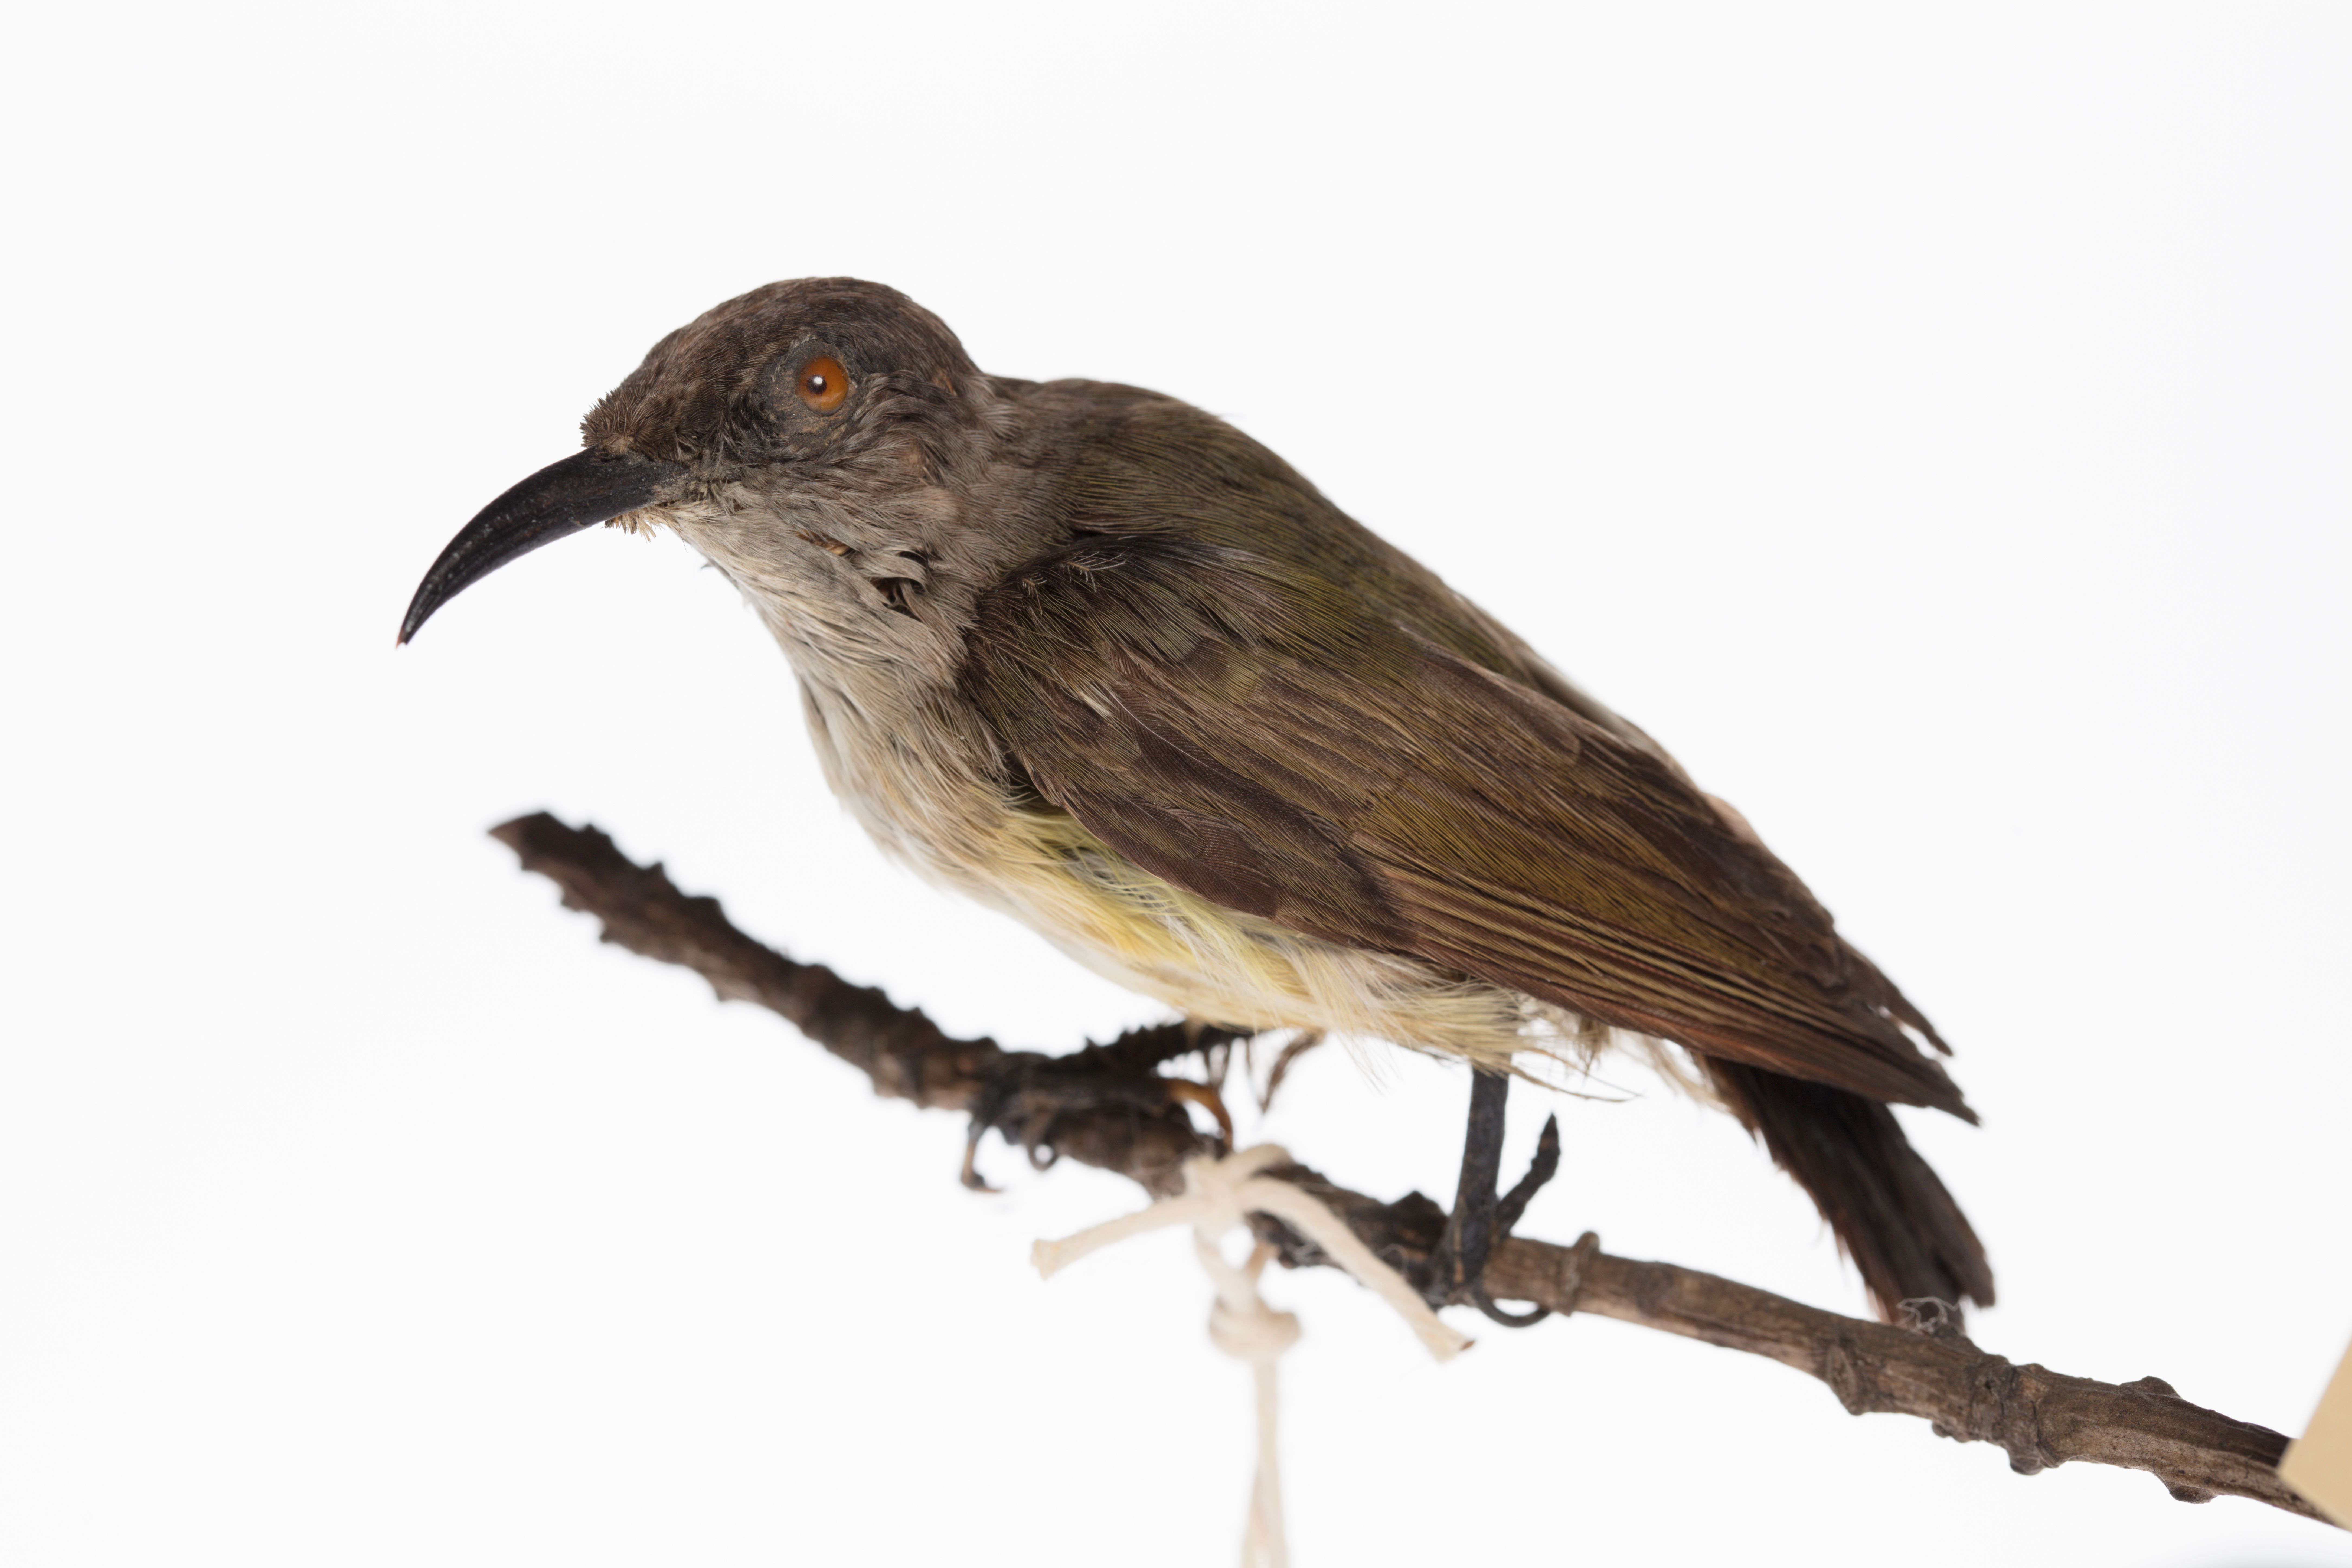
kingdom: Animalia
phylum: Chordata
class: Aves
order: Passeriformes
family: Nectariniidae
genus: Nectarinia
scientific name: Nectarinia
